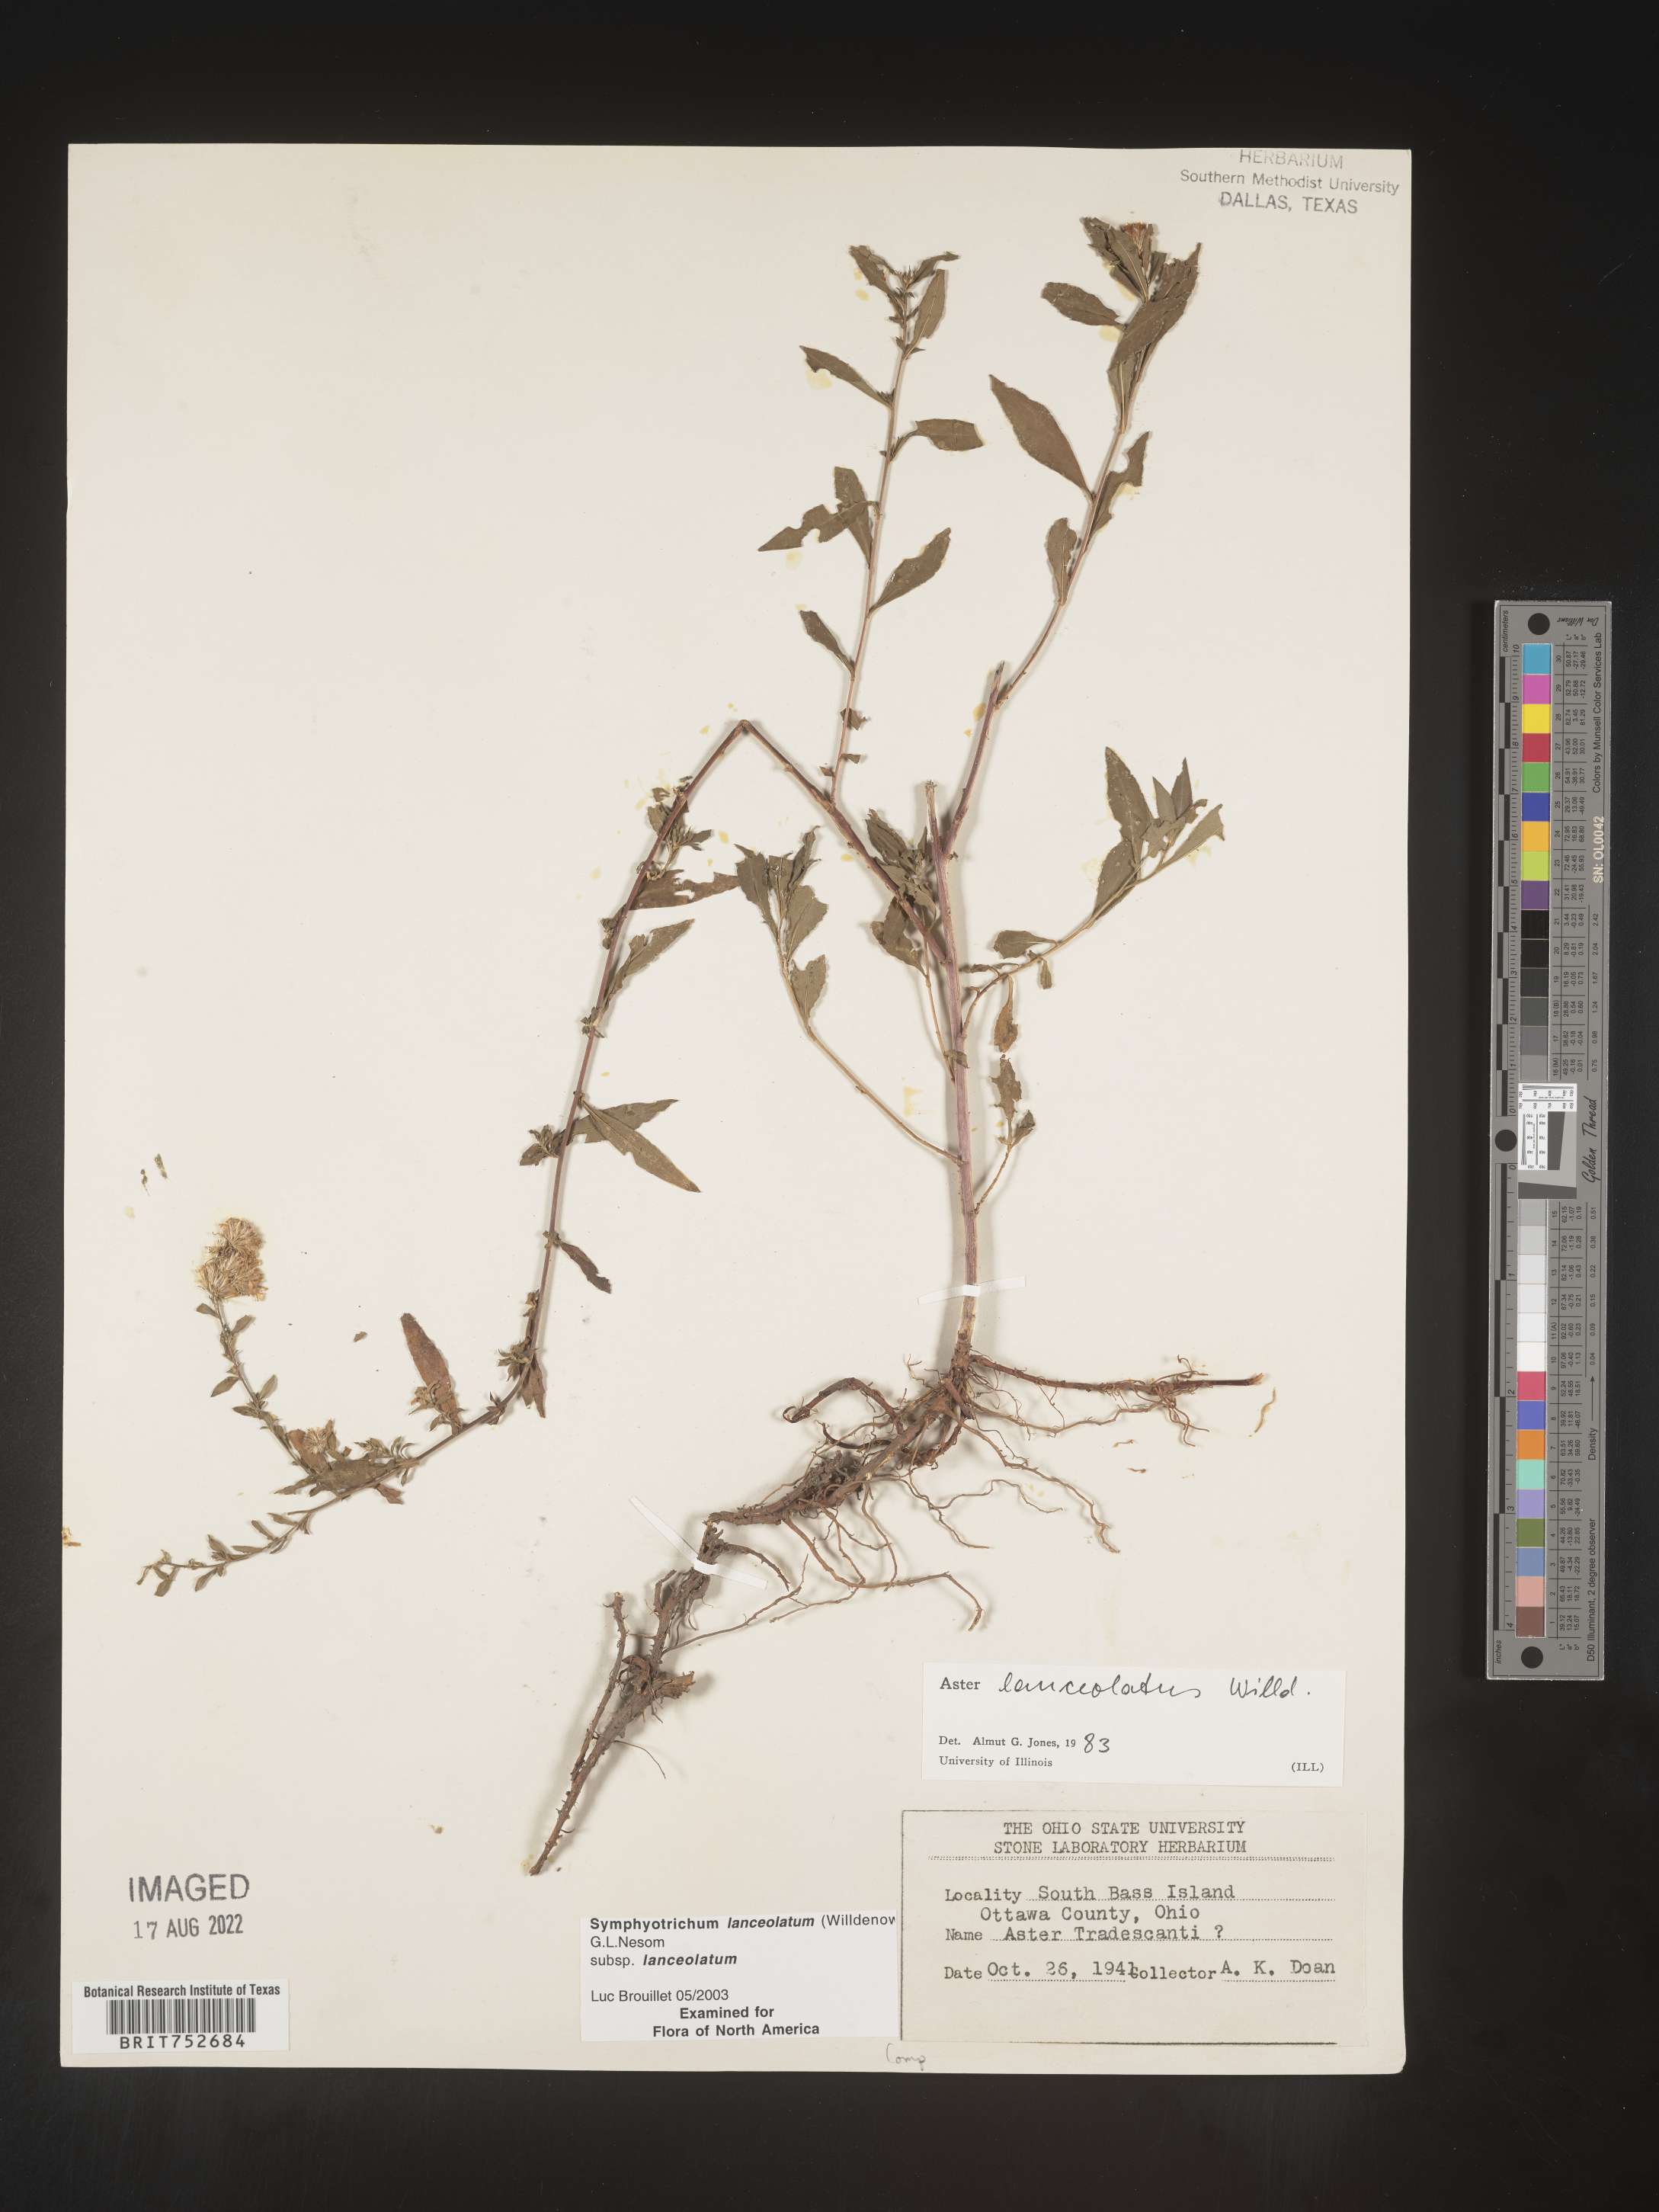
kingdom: Plantae
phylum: Tracheophyta
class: Magnoliopsida
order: Asterales
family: Asteraceae
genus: Symphyotrichum
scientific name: Symphyotrichum lanceolatum
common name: Panicled aster
